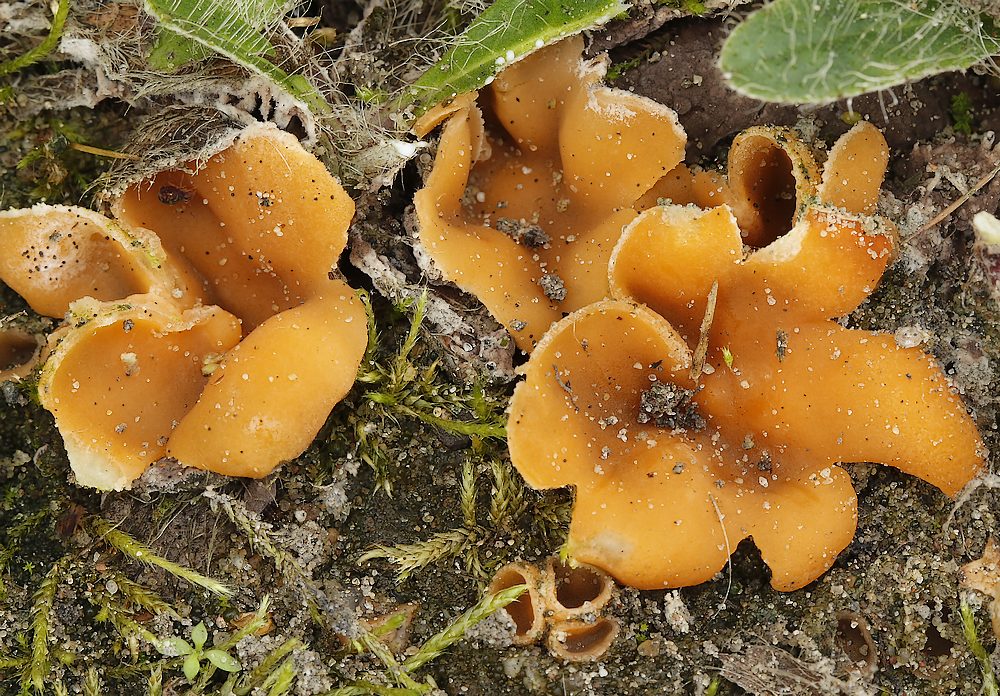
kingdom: Fungi
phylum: Ascomycota
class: Pezizomycetes
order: Pezizales
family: Pyronemataceae
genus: Geopora
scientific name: Geopora semi-immersa
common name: nedsænket børstebæger
